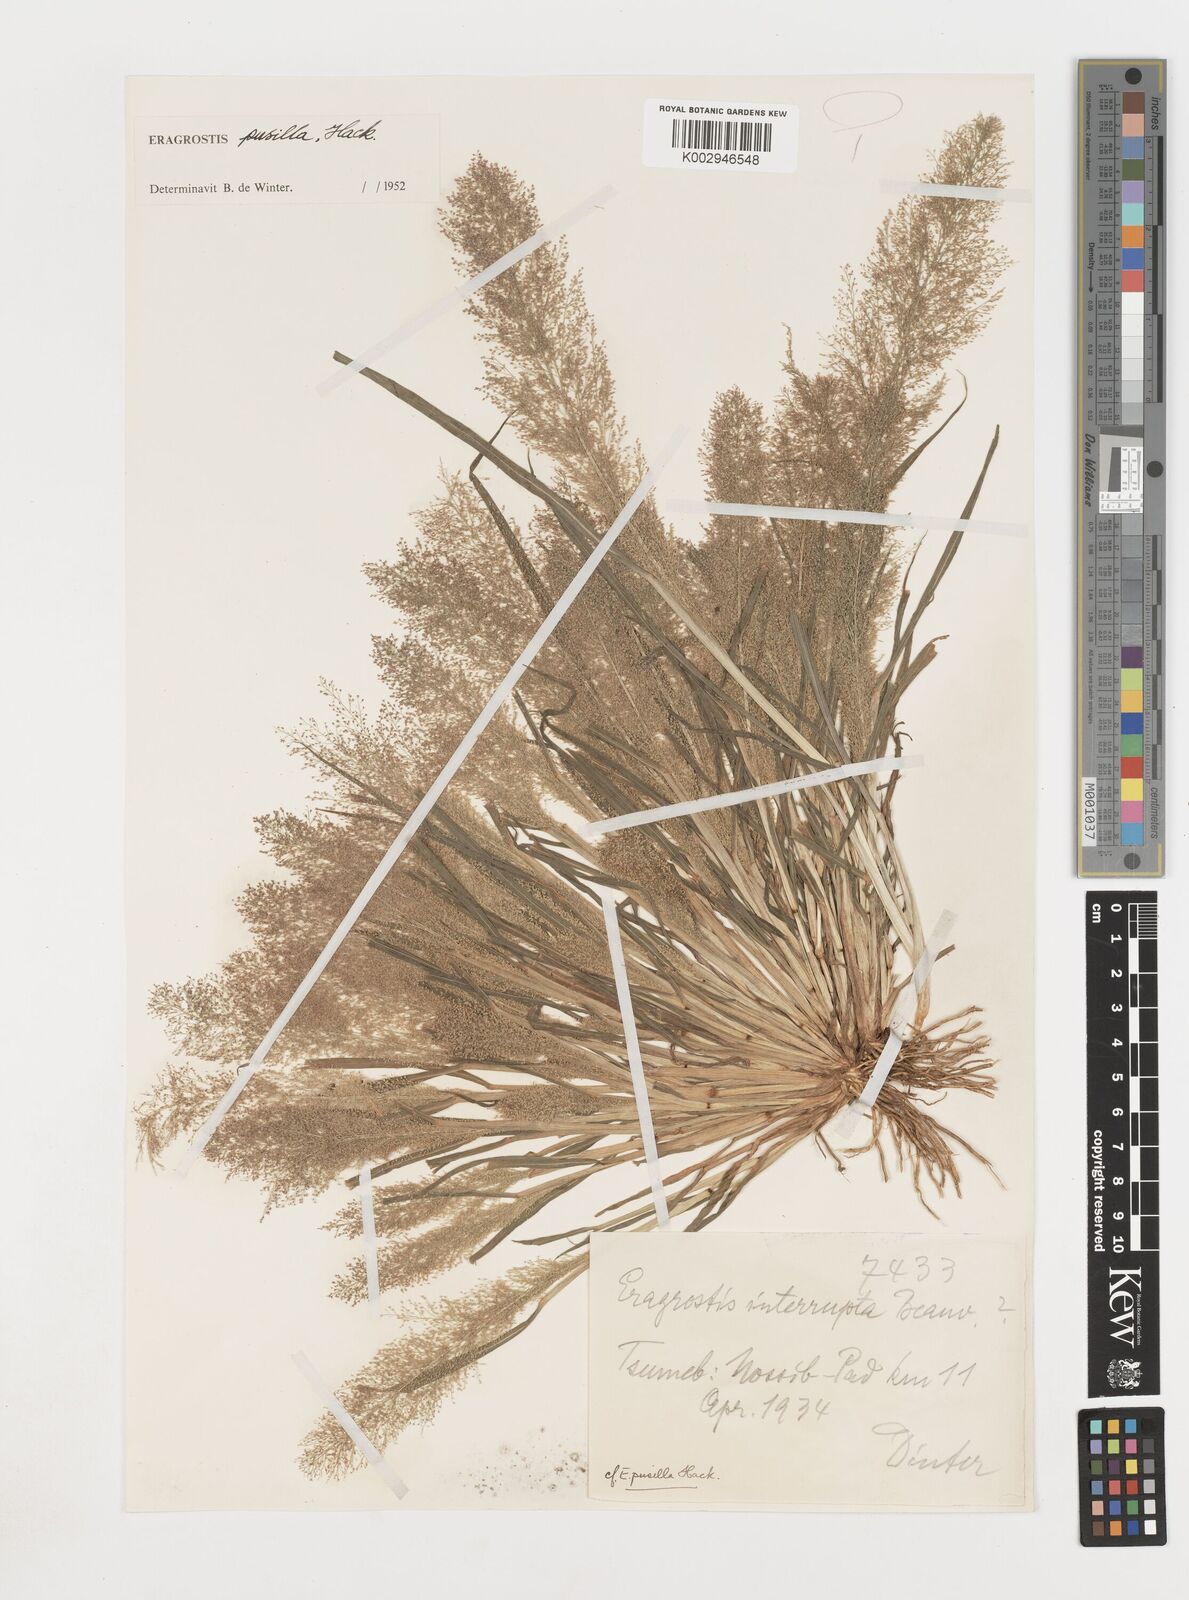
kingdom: Plantae
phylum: Tracheophyta
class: Liliopsida
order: Poales
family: Poaceae
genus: Eragrostis
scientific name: Eragrostis pusilla
